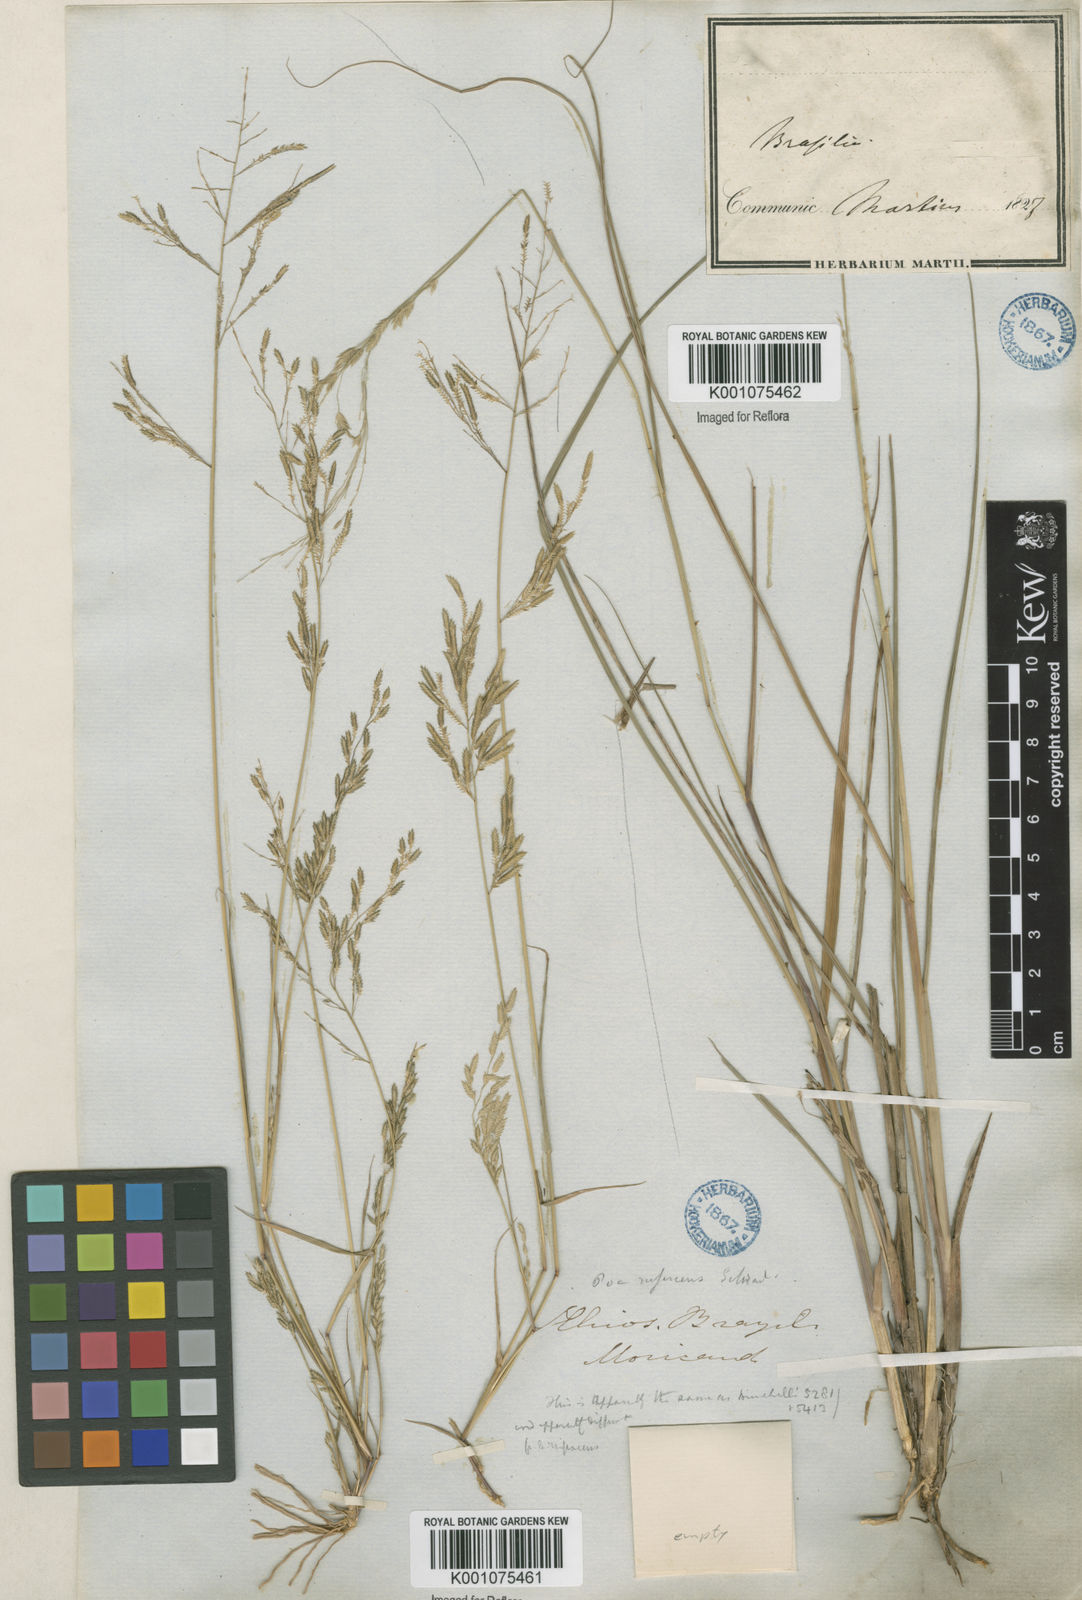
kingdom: Plantae
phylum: Tracheophyta
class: Liliopsida
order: Poales
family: Poaceae
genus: Eragrostis
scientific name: Eragrostis maypurensis
